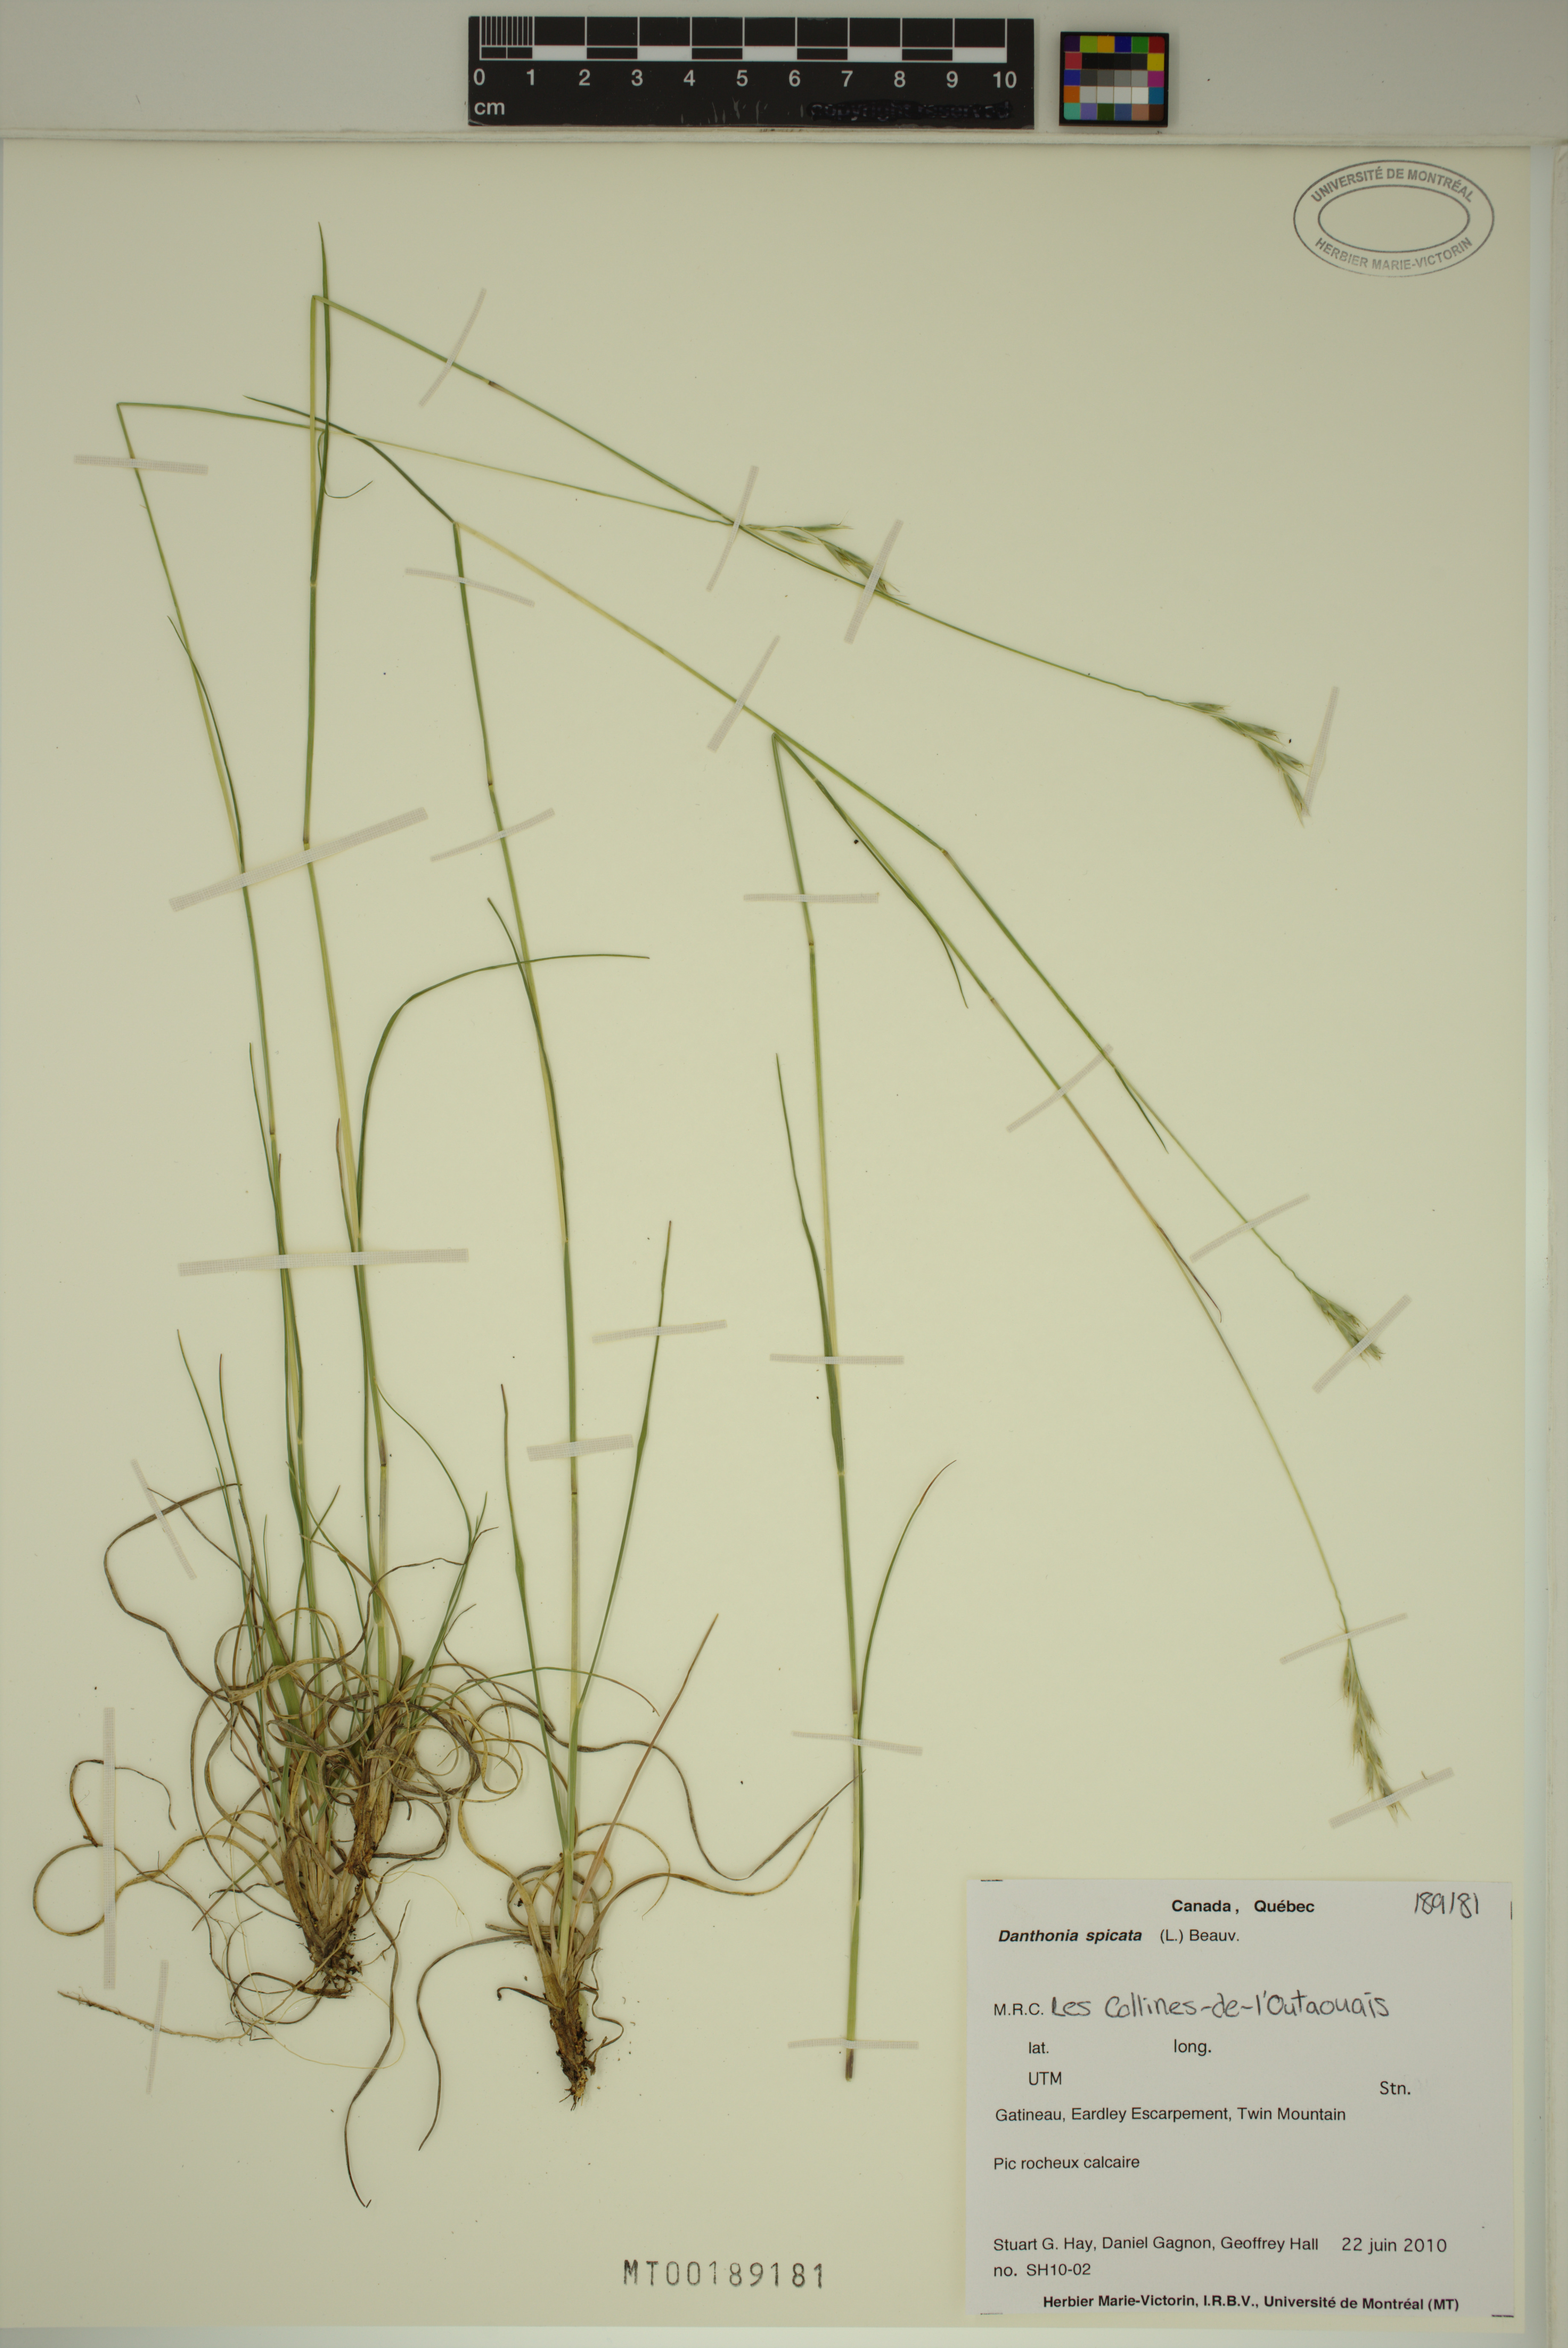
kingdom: Plantae
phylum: Tracheophyta
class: Liliopsida
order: Poales
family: Poaceae
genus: Danthonia
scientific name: Danthonia spicata
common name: Common wild oatgrass
